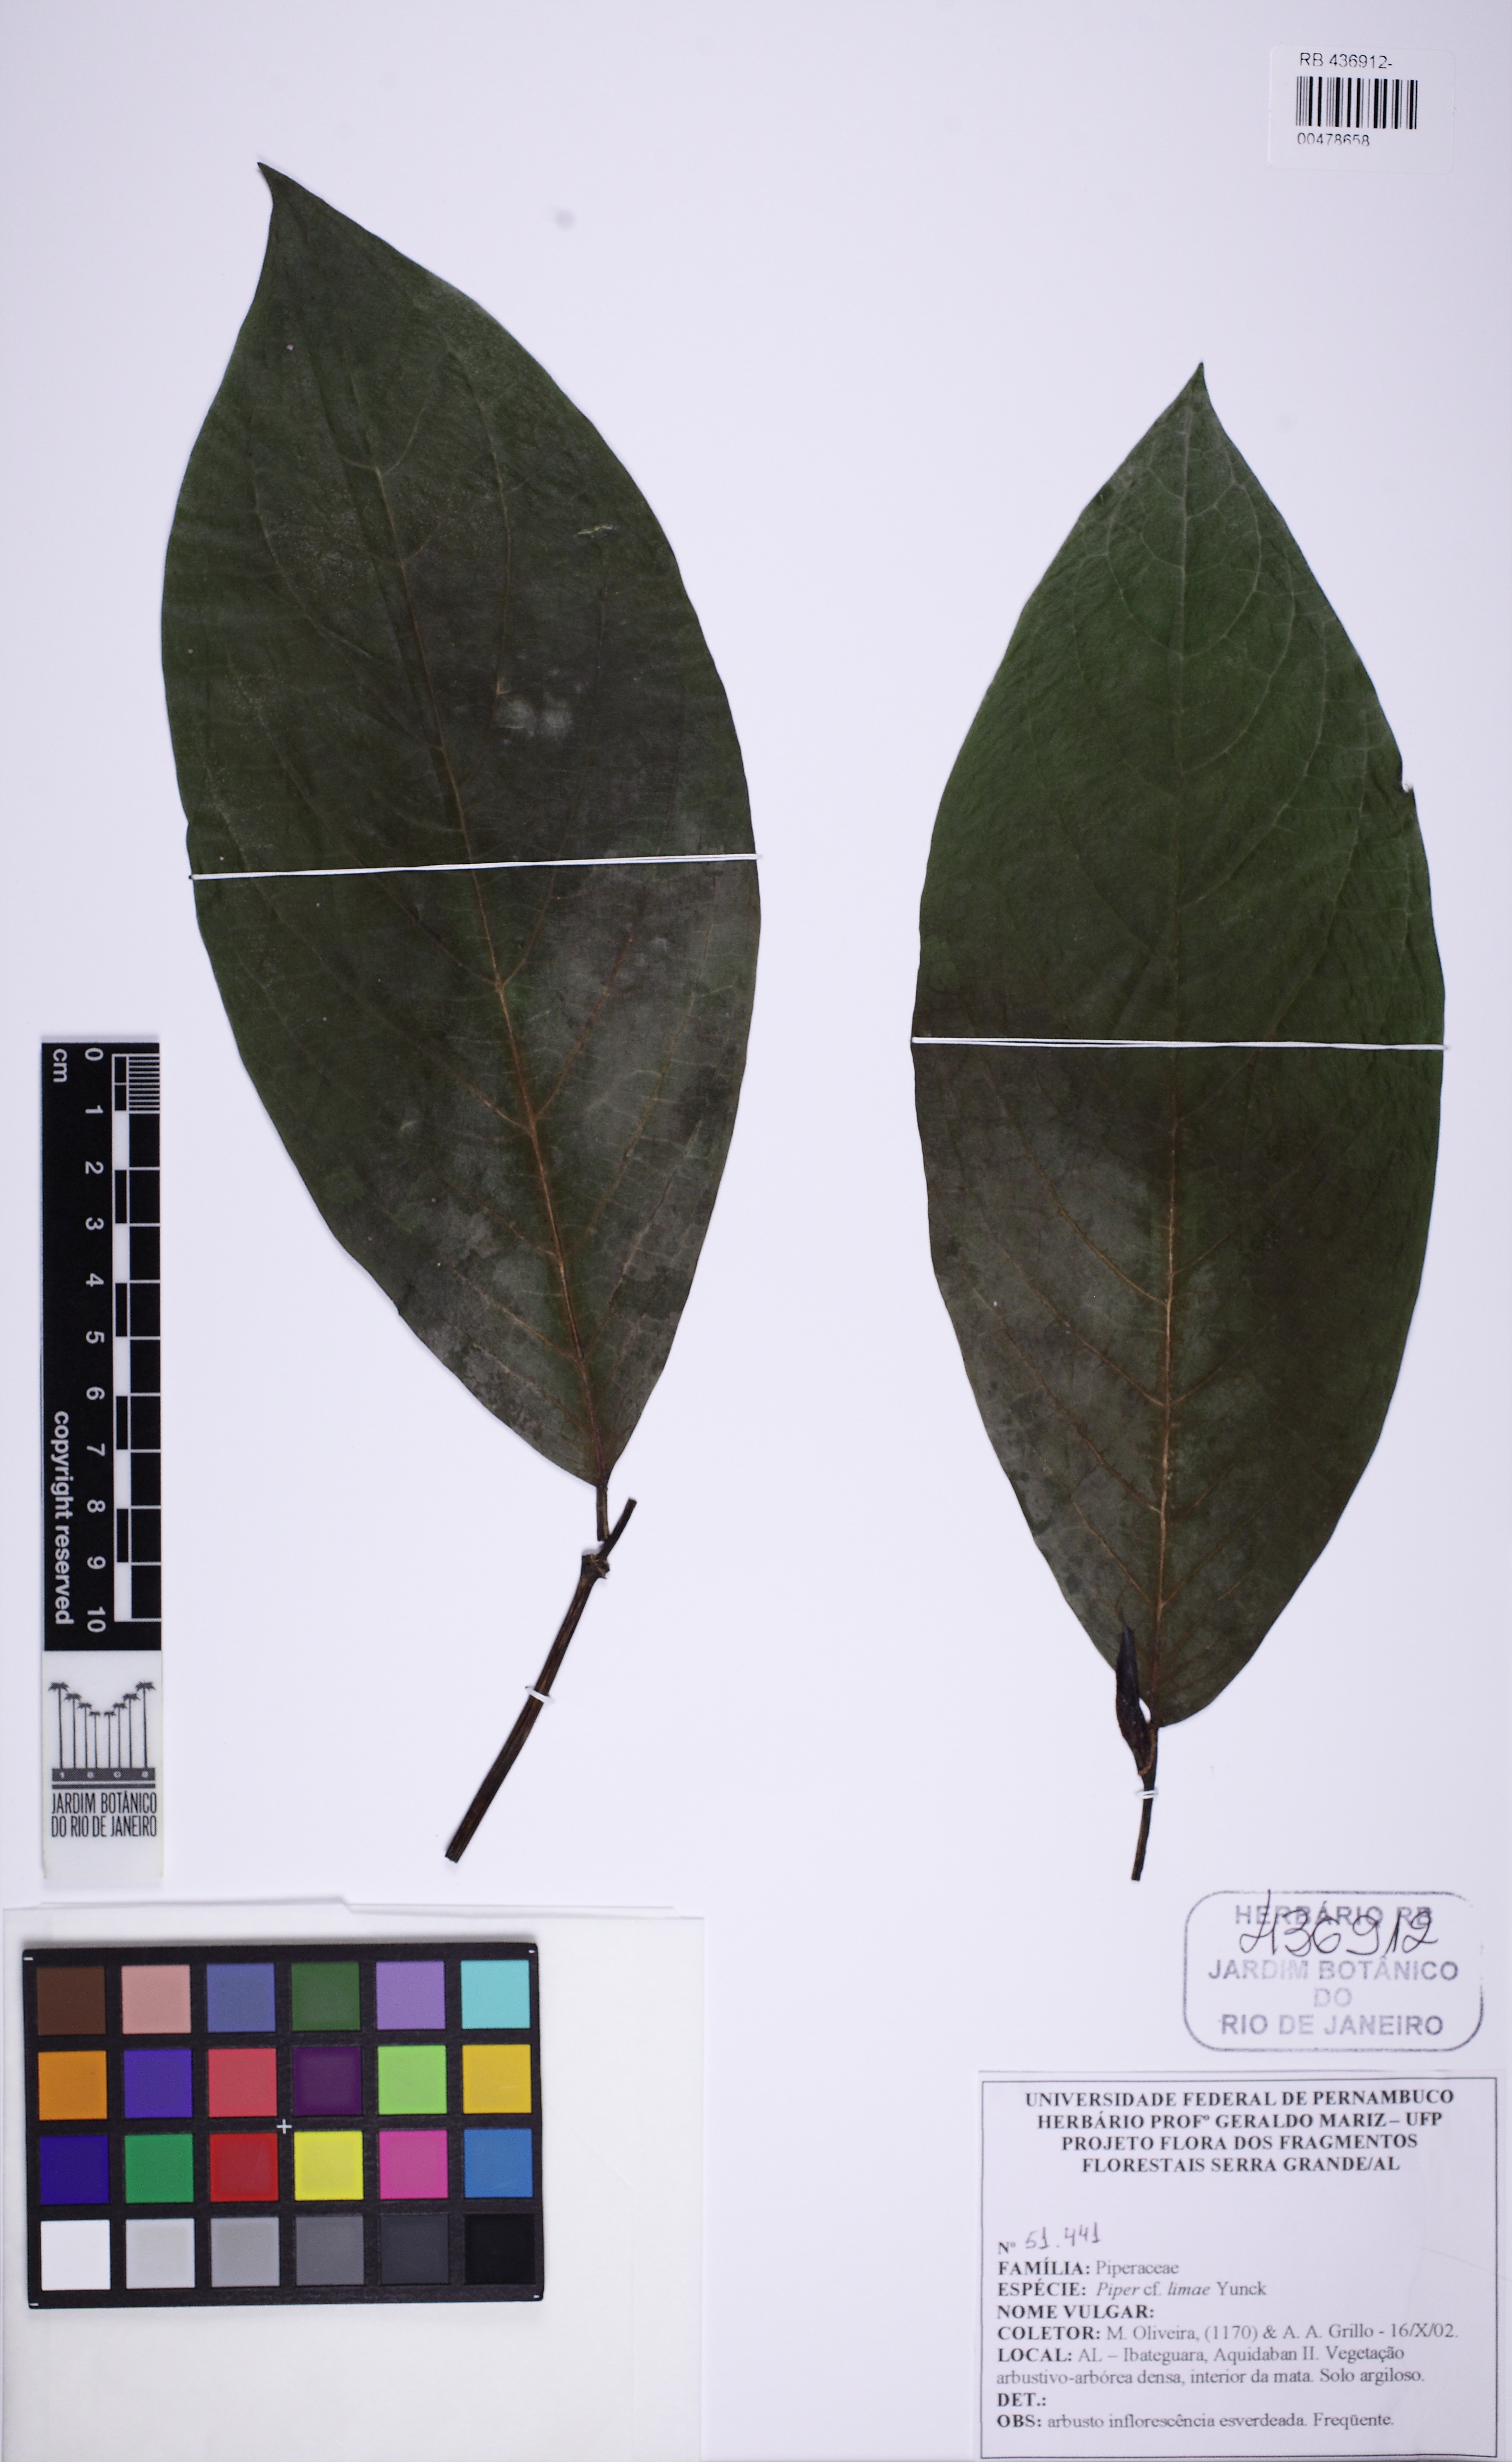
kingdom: Plantae
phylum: Tracheophyta
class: Magnoliopsida
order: Piperales
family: Piperaceae
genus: Piper
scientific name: Piper limai
